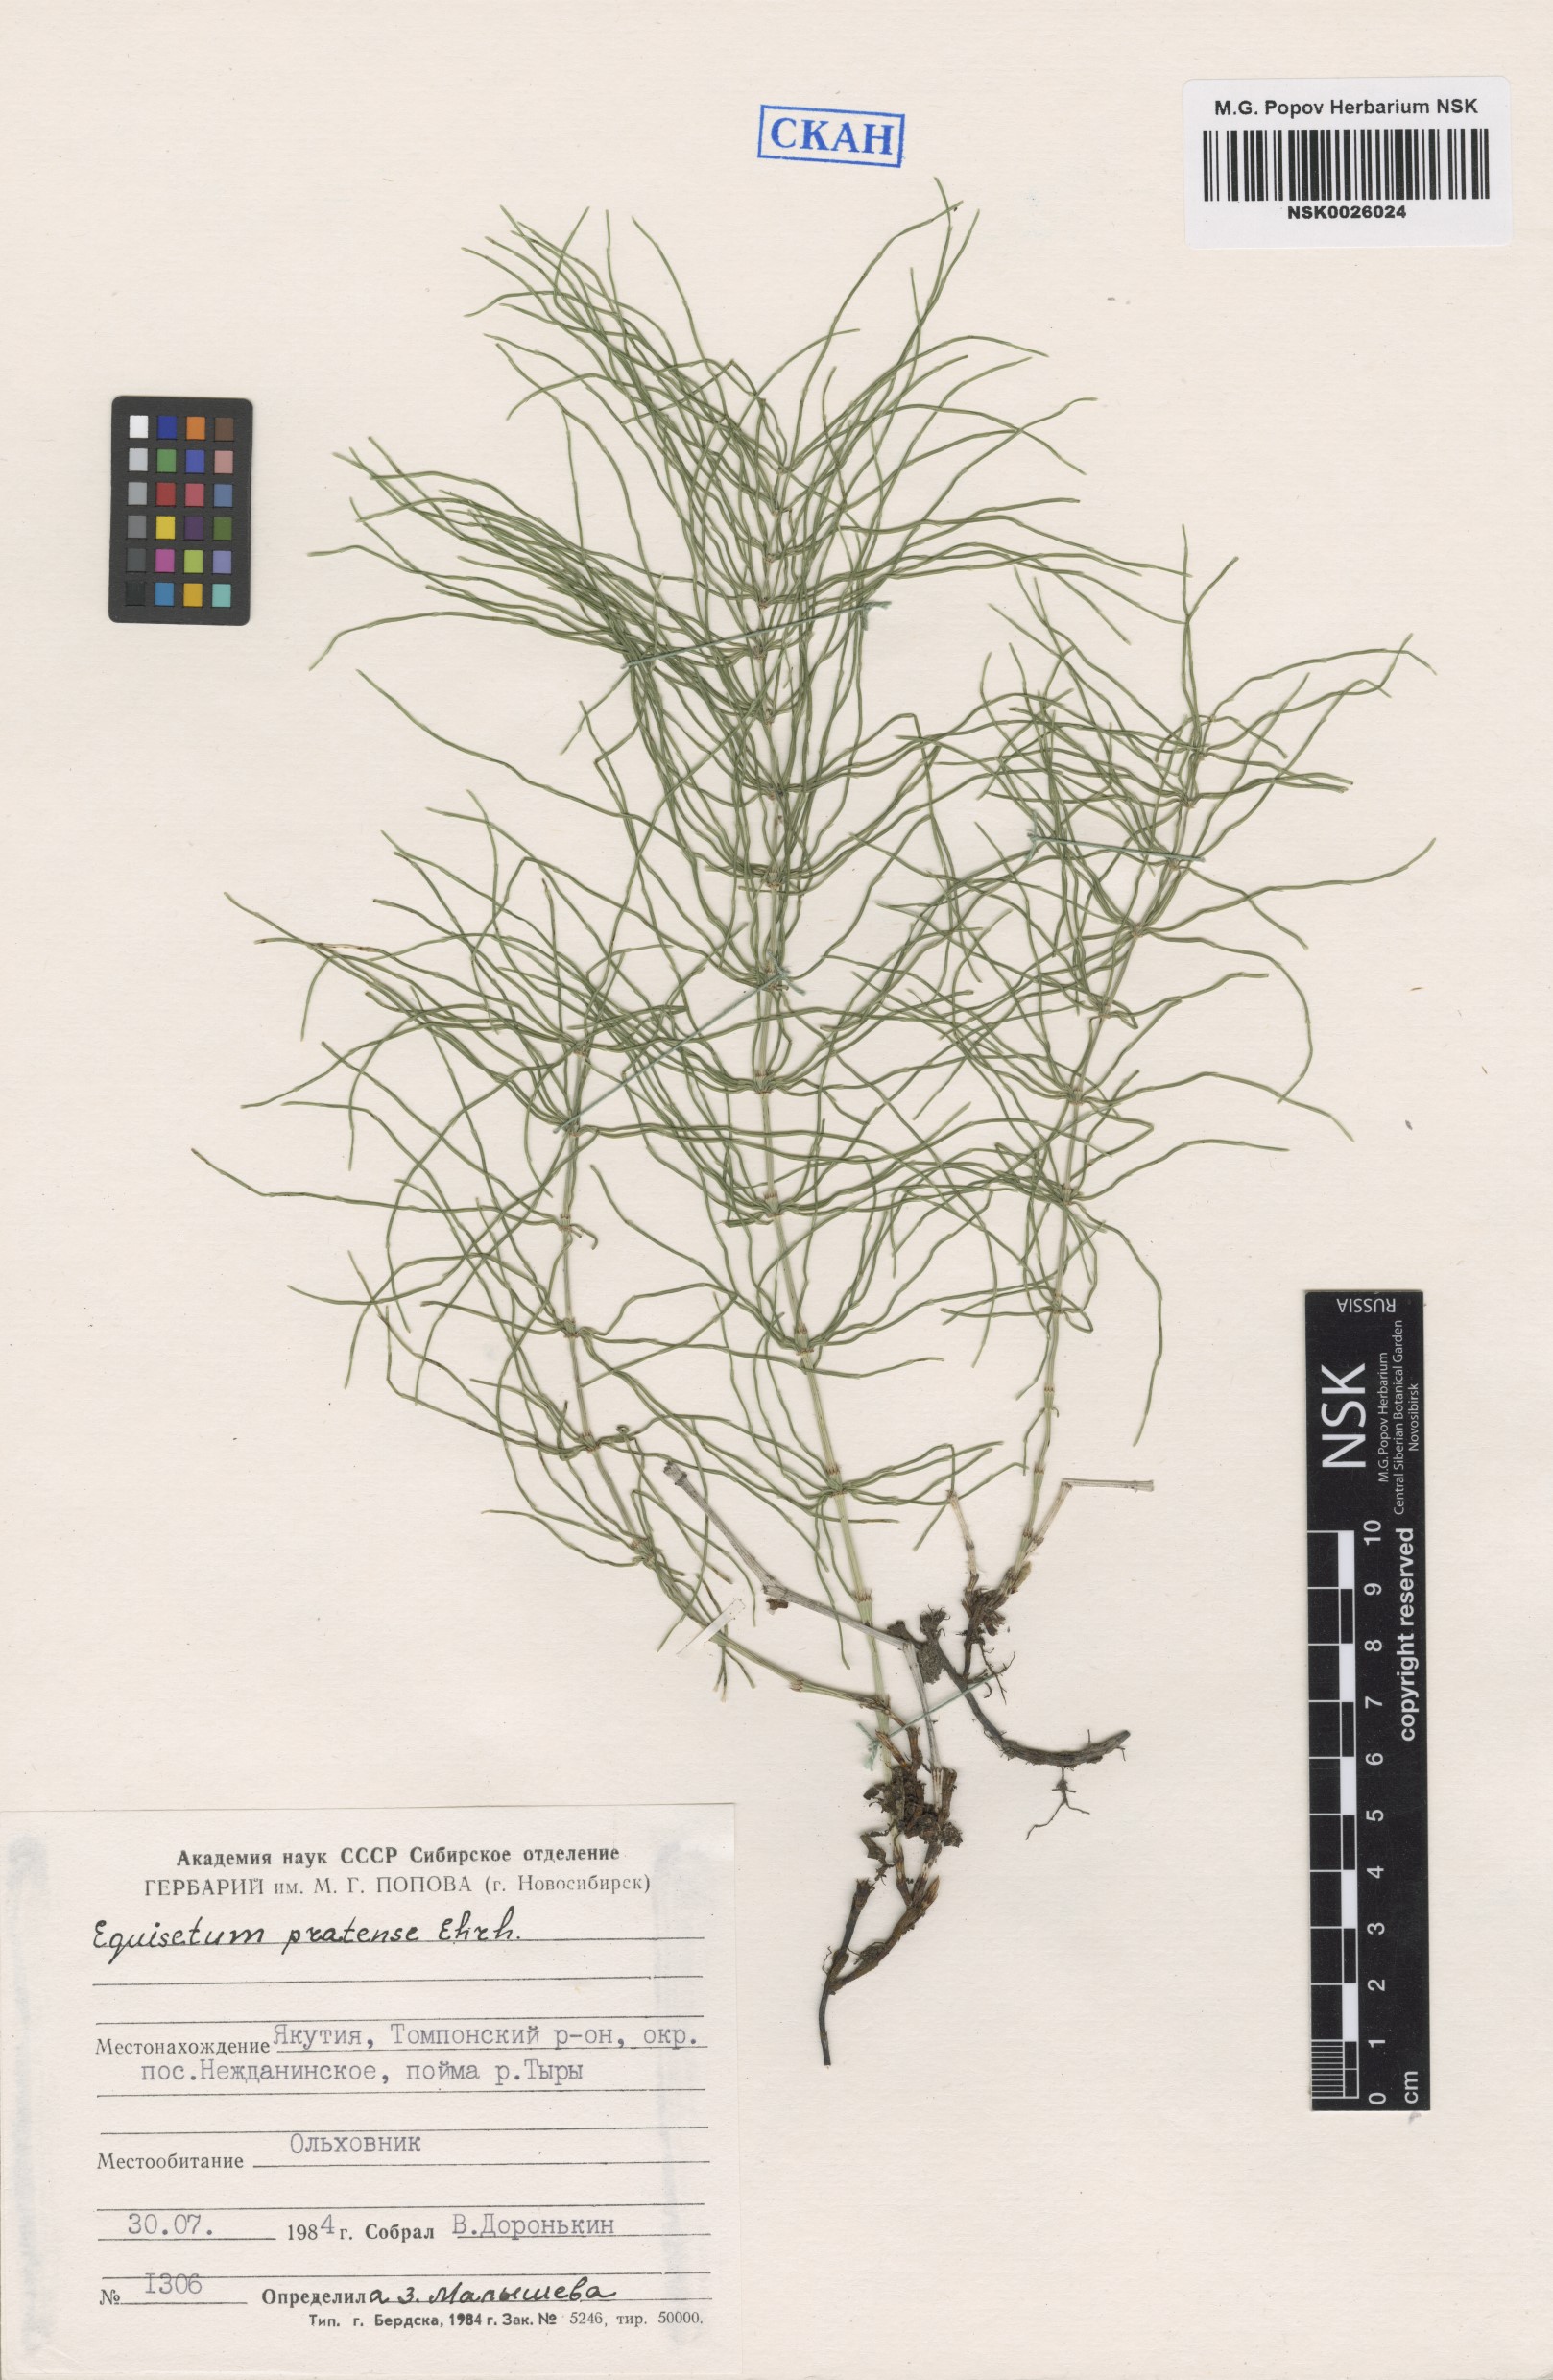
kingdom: Plantae
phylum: Tracheophyta
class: Polypodiopsida
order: Equisetales
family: Equisetaceae
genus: Equisetum
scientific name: Equisetum pratense
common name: Meadow horsetail
